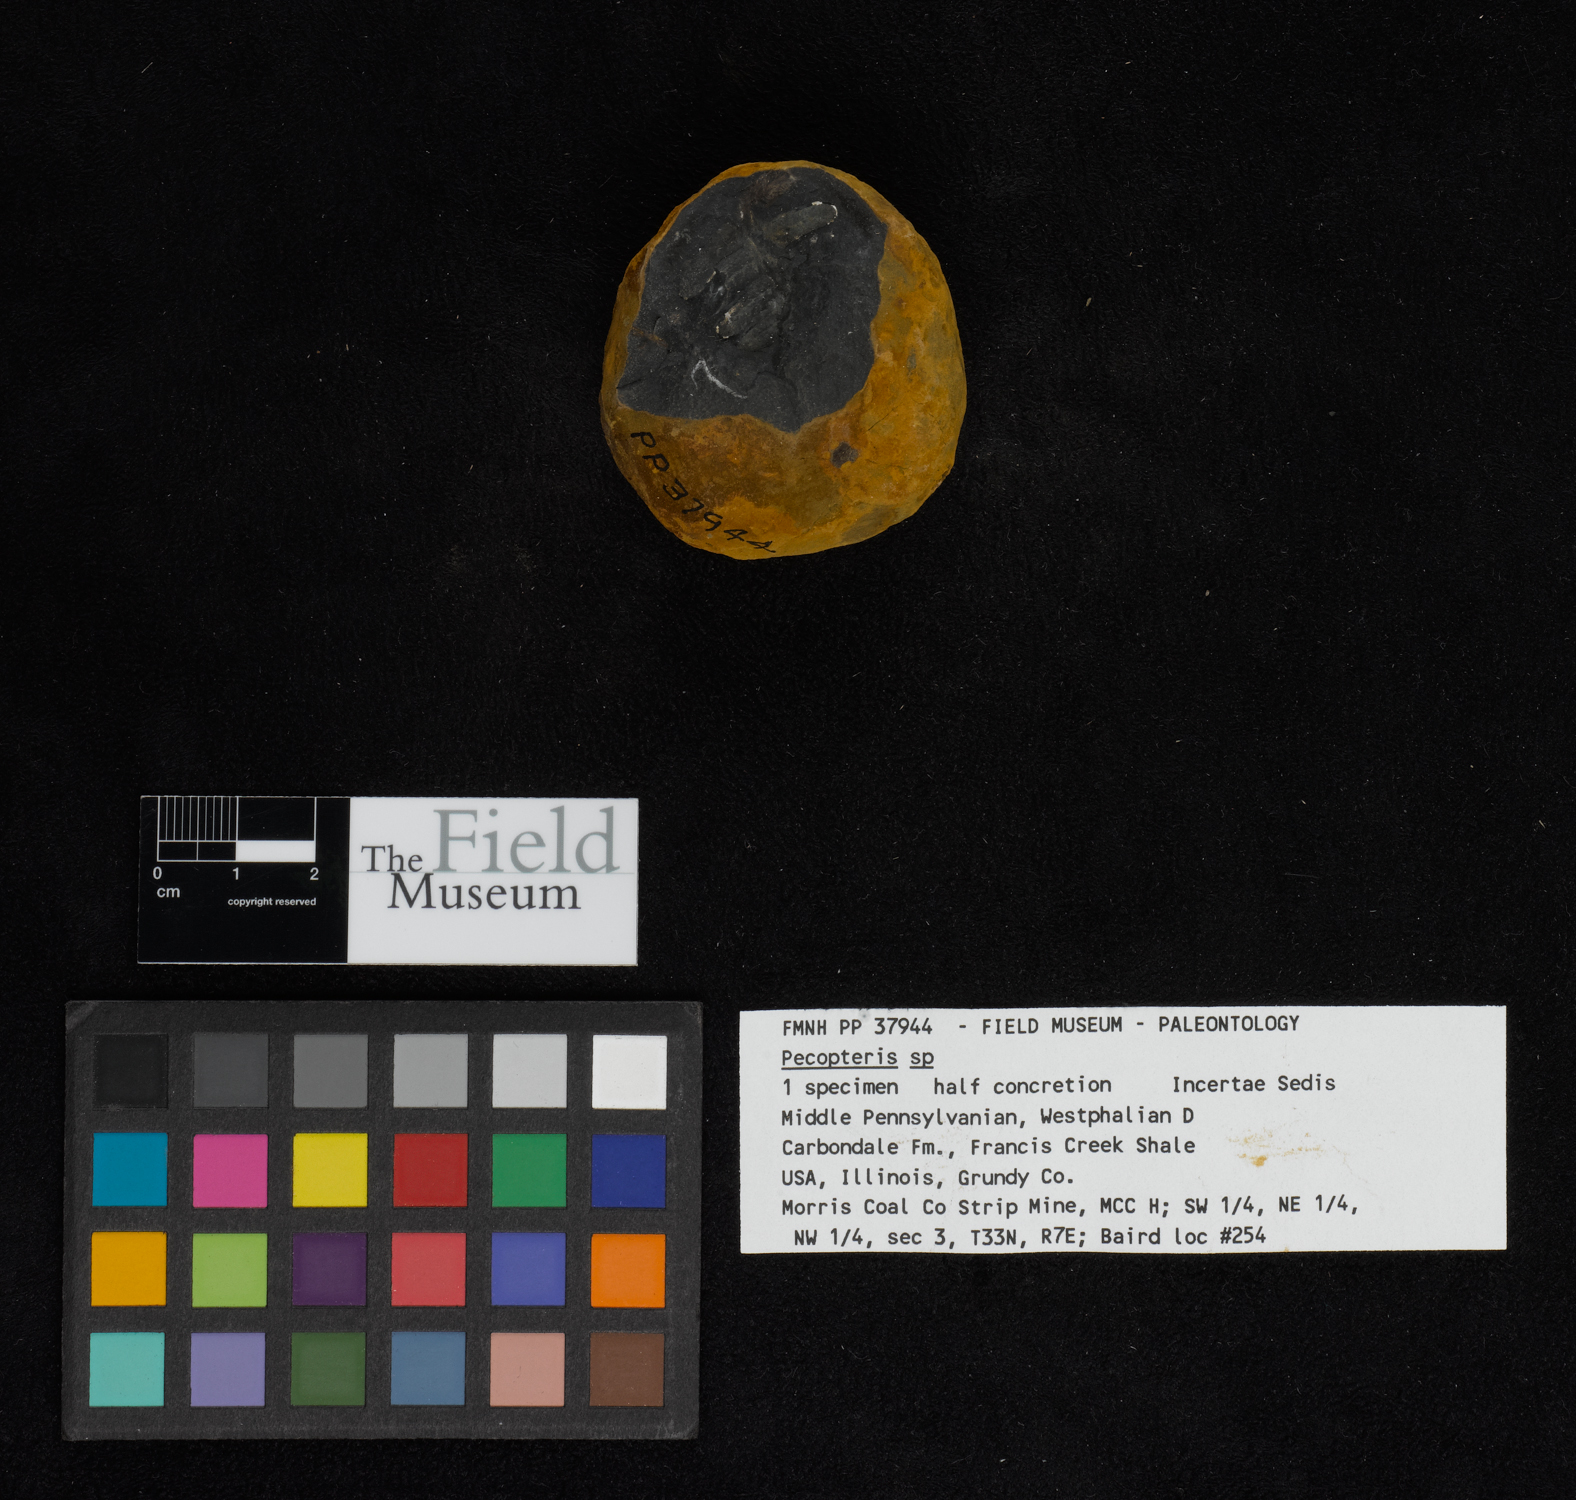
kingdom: Plantae
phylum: Tracheophyta
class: Polypodiopsida
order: Marattiales
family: Asterothecaceae
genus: Pecopteris
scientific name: Pecopteris
